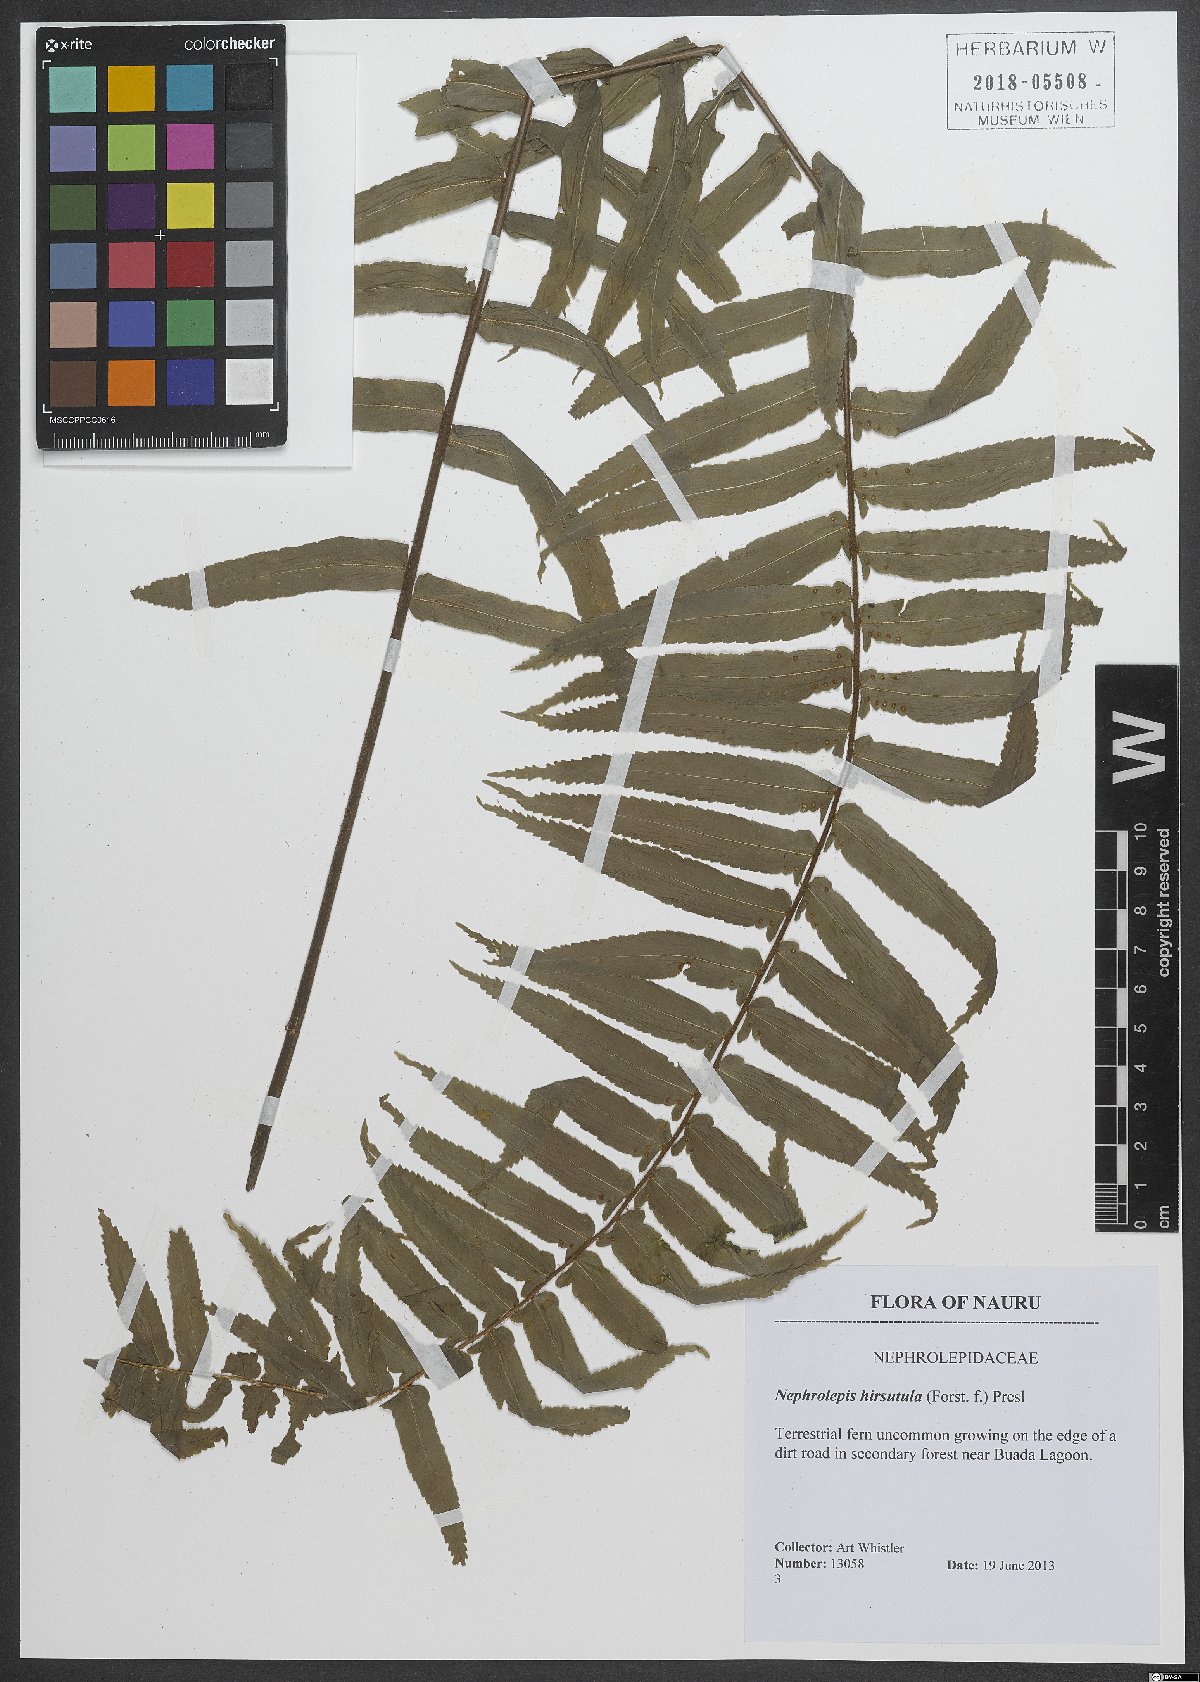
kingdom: Plantae
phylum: Tracheophyta
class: Polypodiopsida
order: Polypodiales
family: Nephrolepidaceae
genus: Nephrolepis
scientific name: Nephrolepis hirsutula
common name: Asian sword fern
